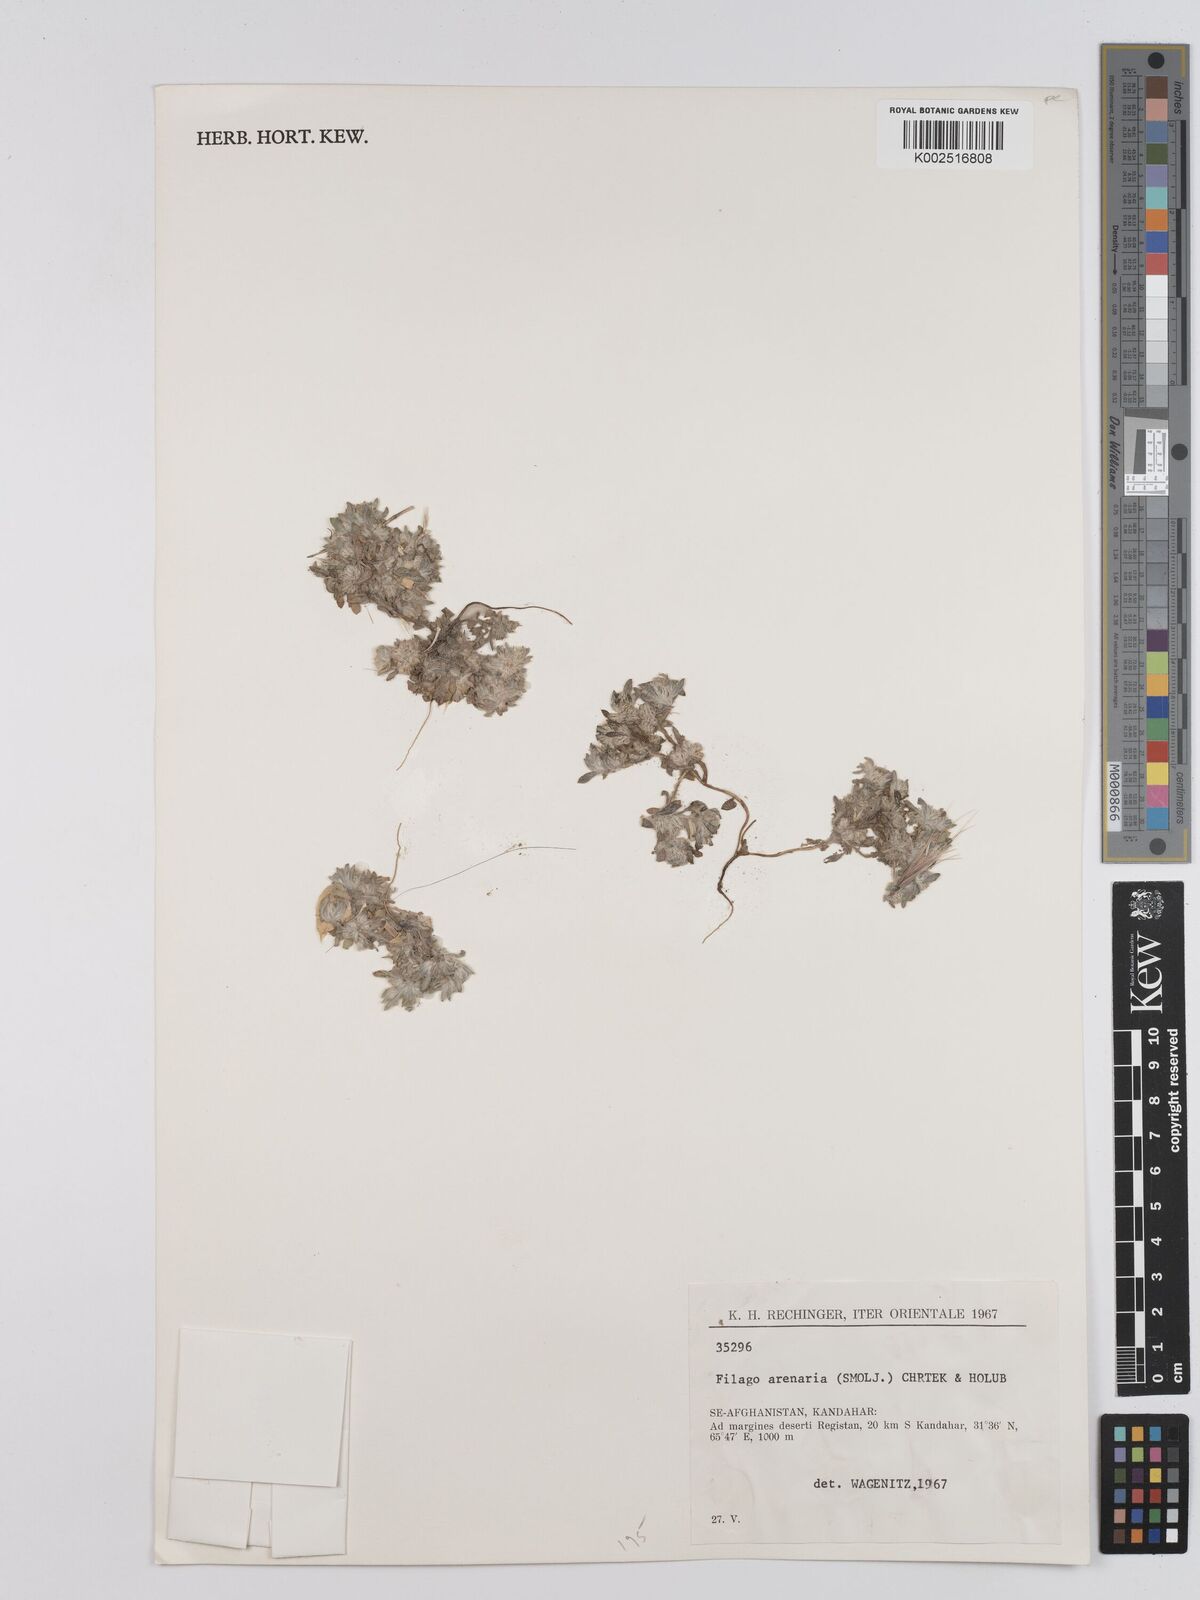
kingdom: Plantae
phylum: Tracheophyta
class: Magnoliopsida
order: Asterales
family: Asteraceae
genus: Filago
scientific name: Filago arenaria
